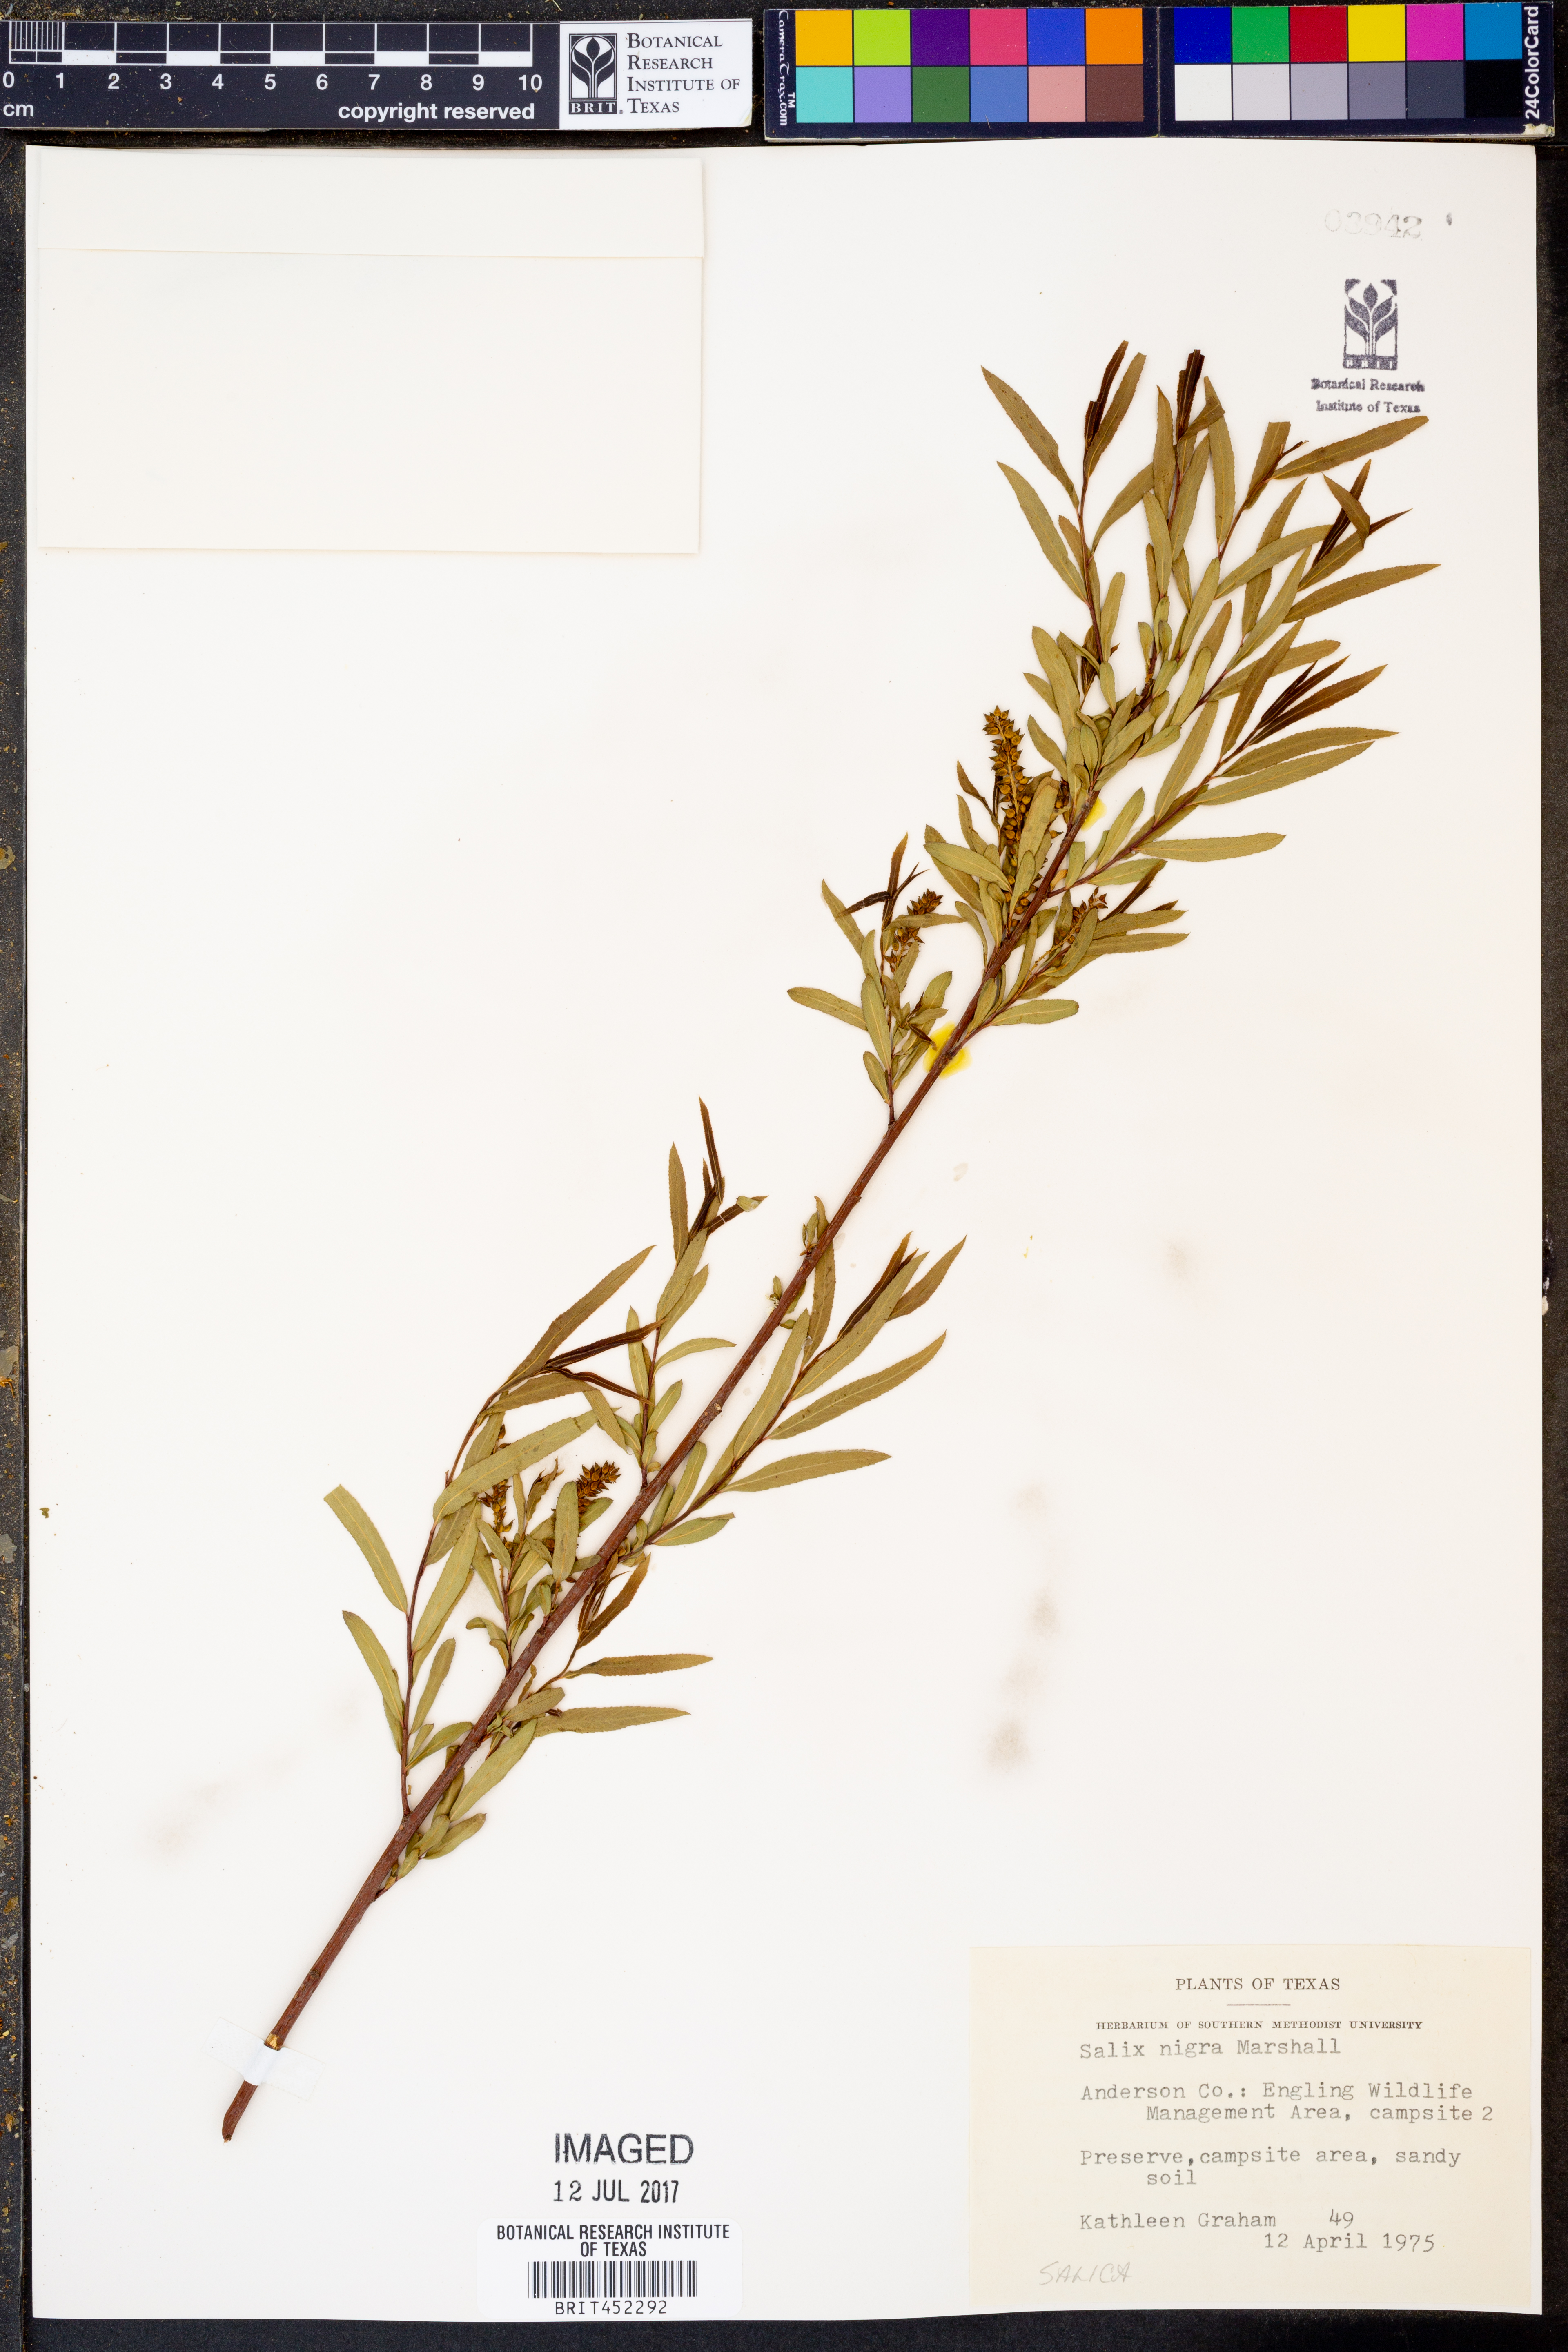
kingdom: Plantae
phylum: Tracheophyta
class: Magnoliopsida
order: Malpighiales
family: Salicaceae
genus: Salix
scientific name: Salix nigra
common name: Black willow
